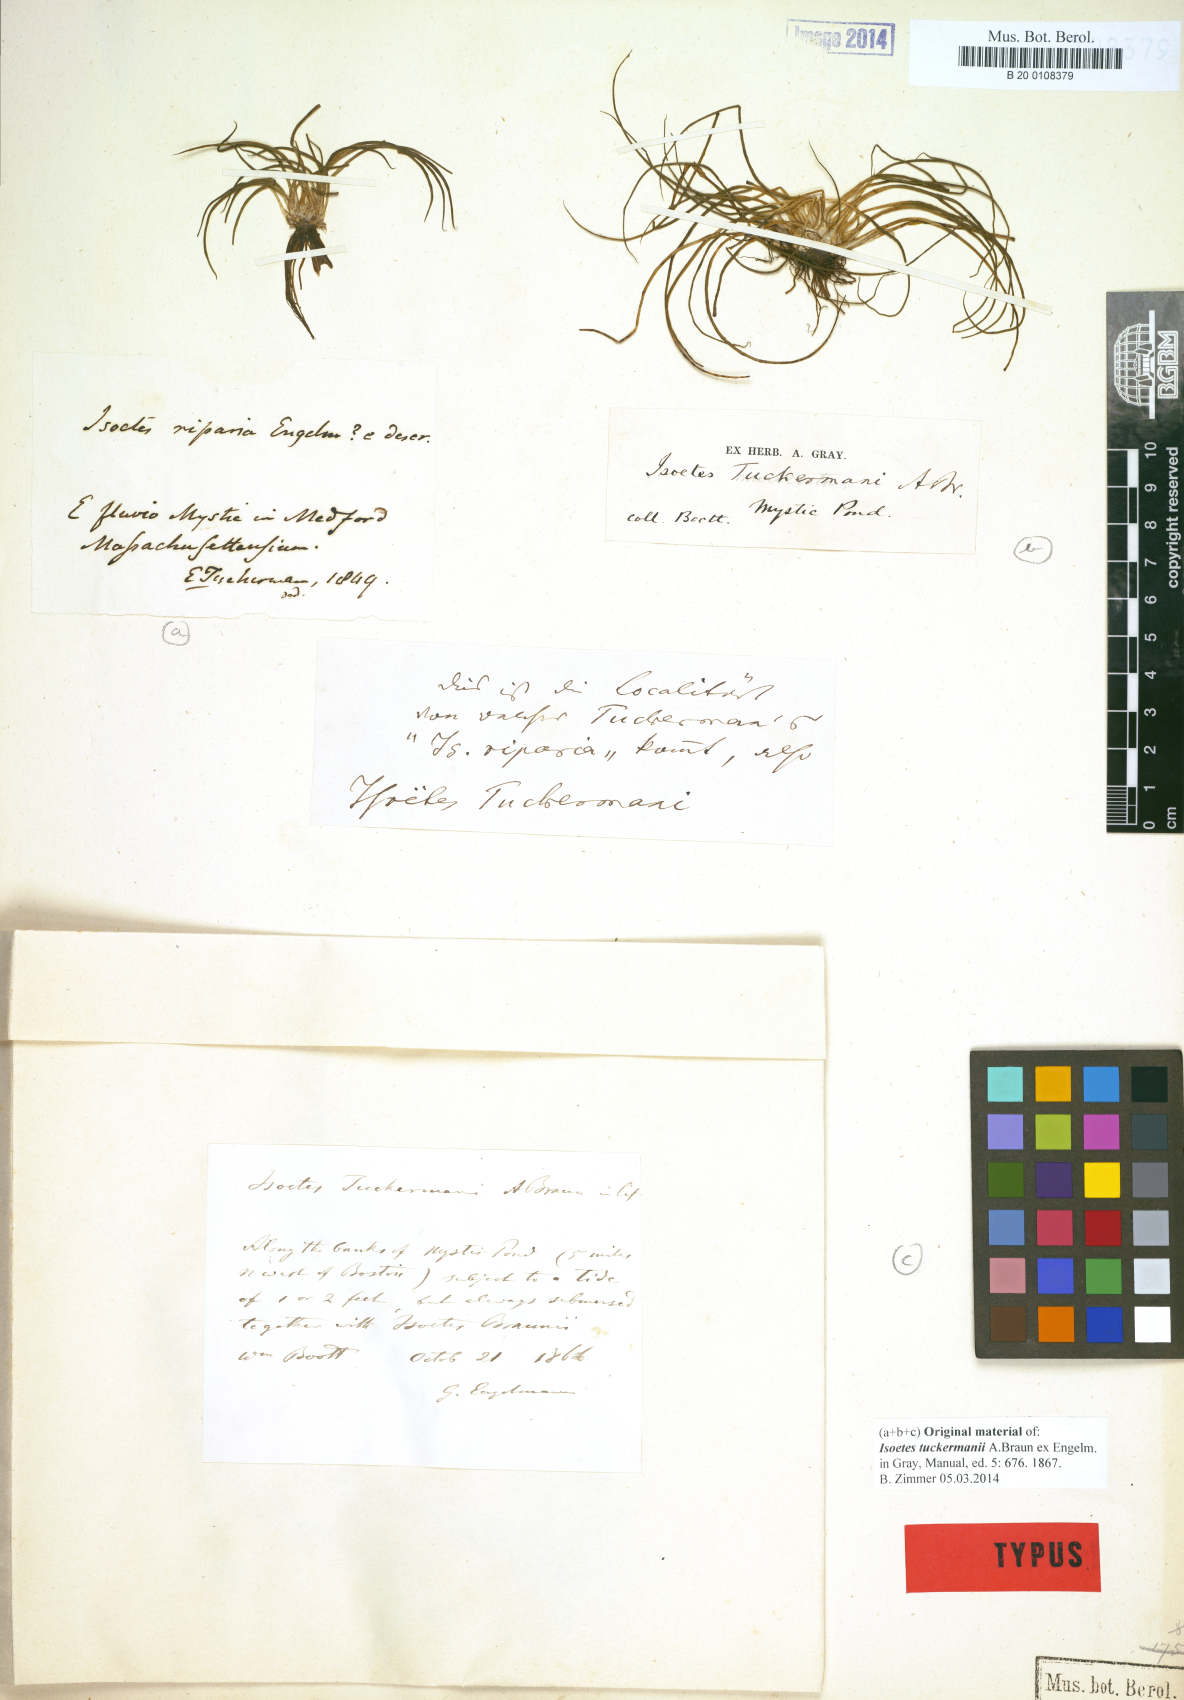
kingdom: Plantae
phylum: Tracheophyta
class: Lycopodiopsida
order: Isoetales
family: Isoetaceae
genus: Isoetes
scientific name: Isoetes tuckermanii
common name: Tuckerman's quillwort
